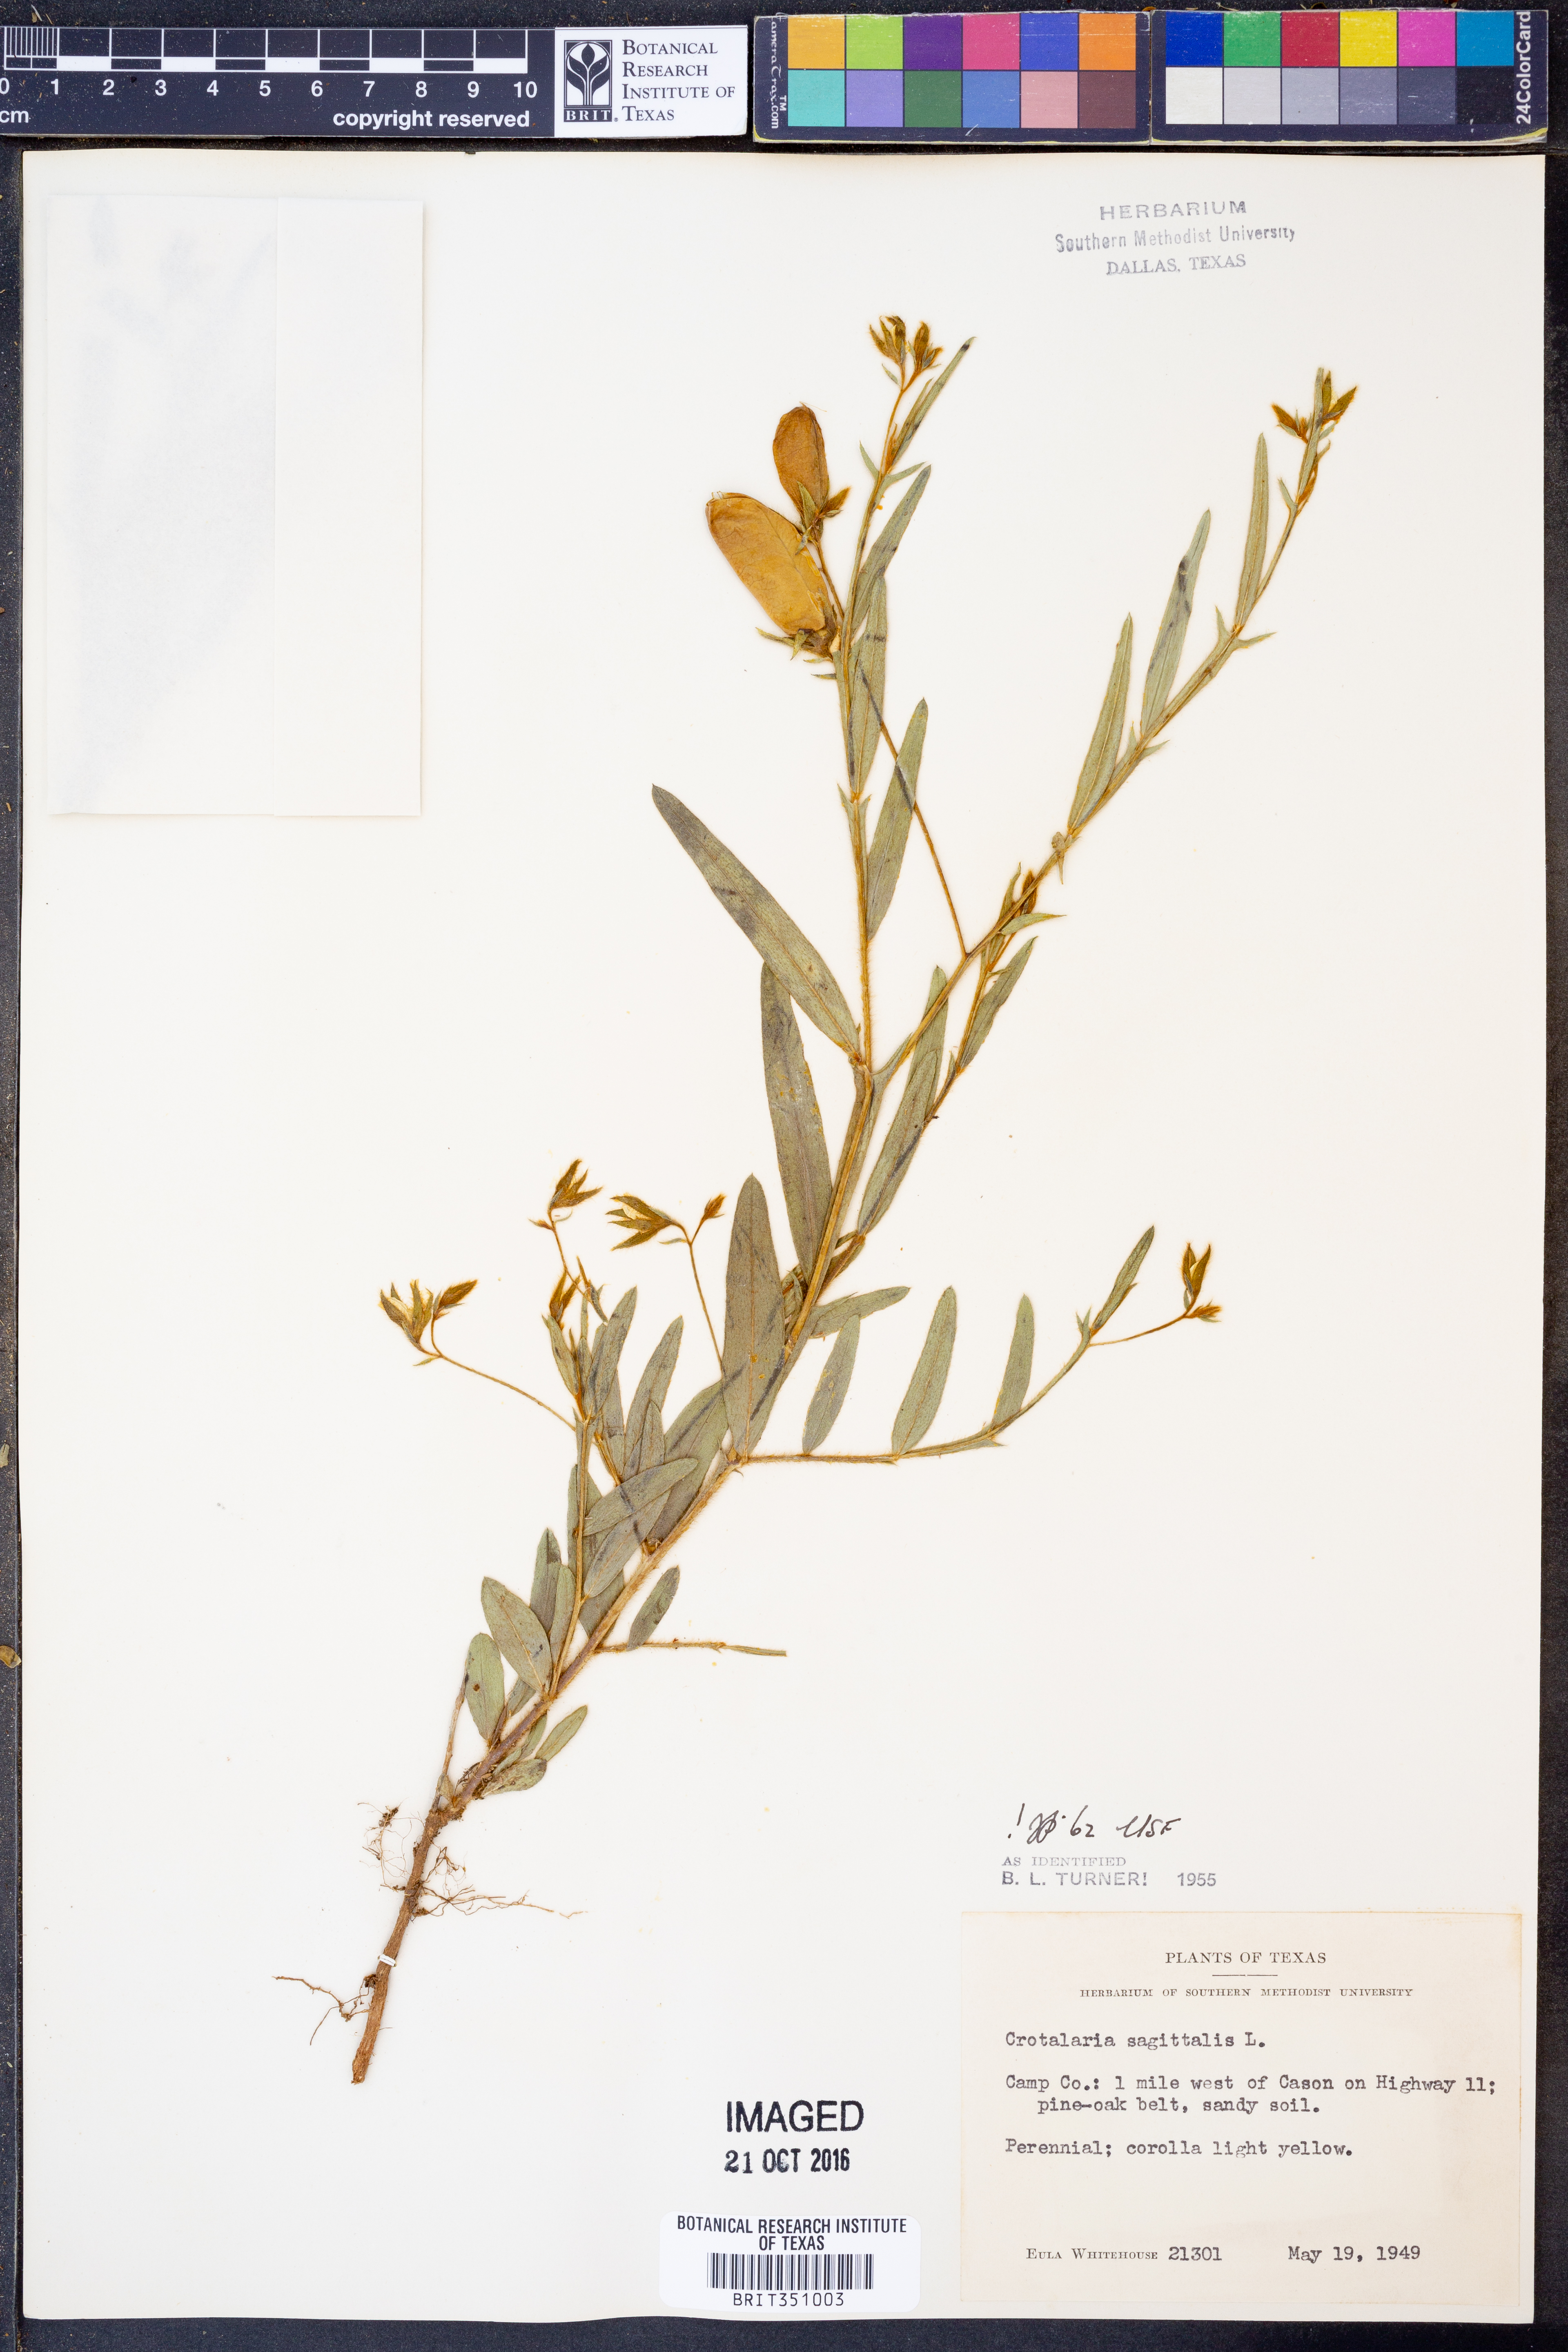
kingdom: Plantae
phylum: Tracheophyta
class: Magnoliopsida
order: Fabales
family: Fabaceae
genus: Crotalaria
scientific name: Crotalaria sagittalis
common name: Arrowhead rattlebox
